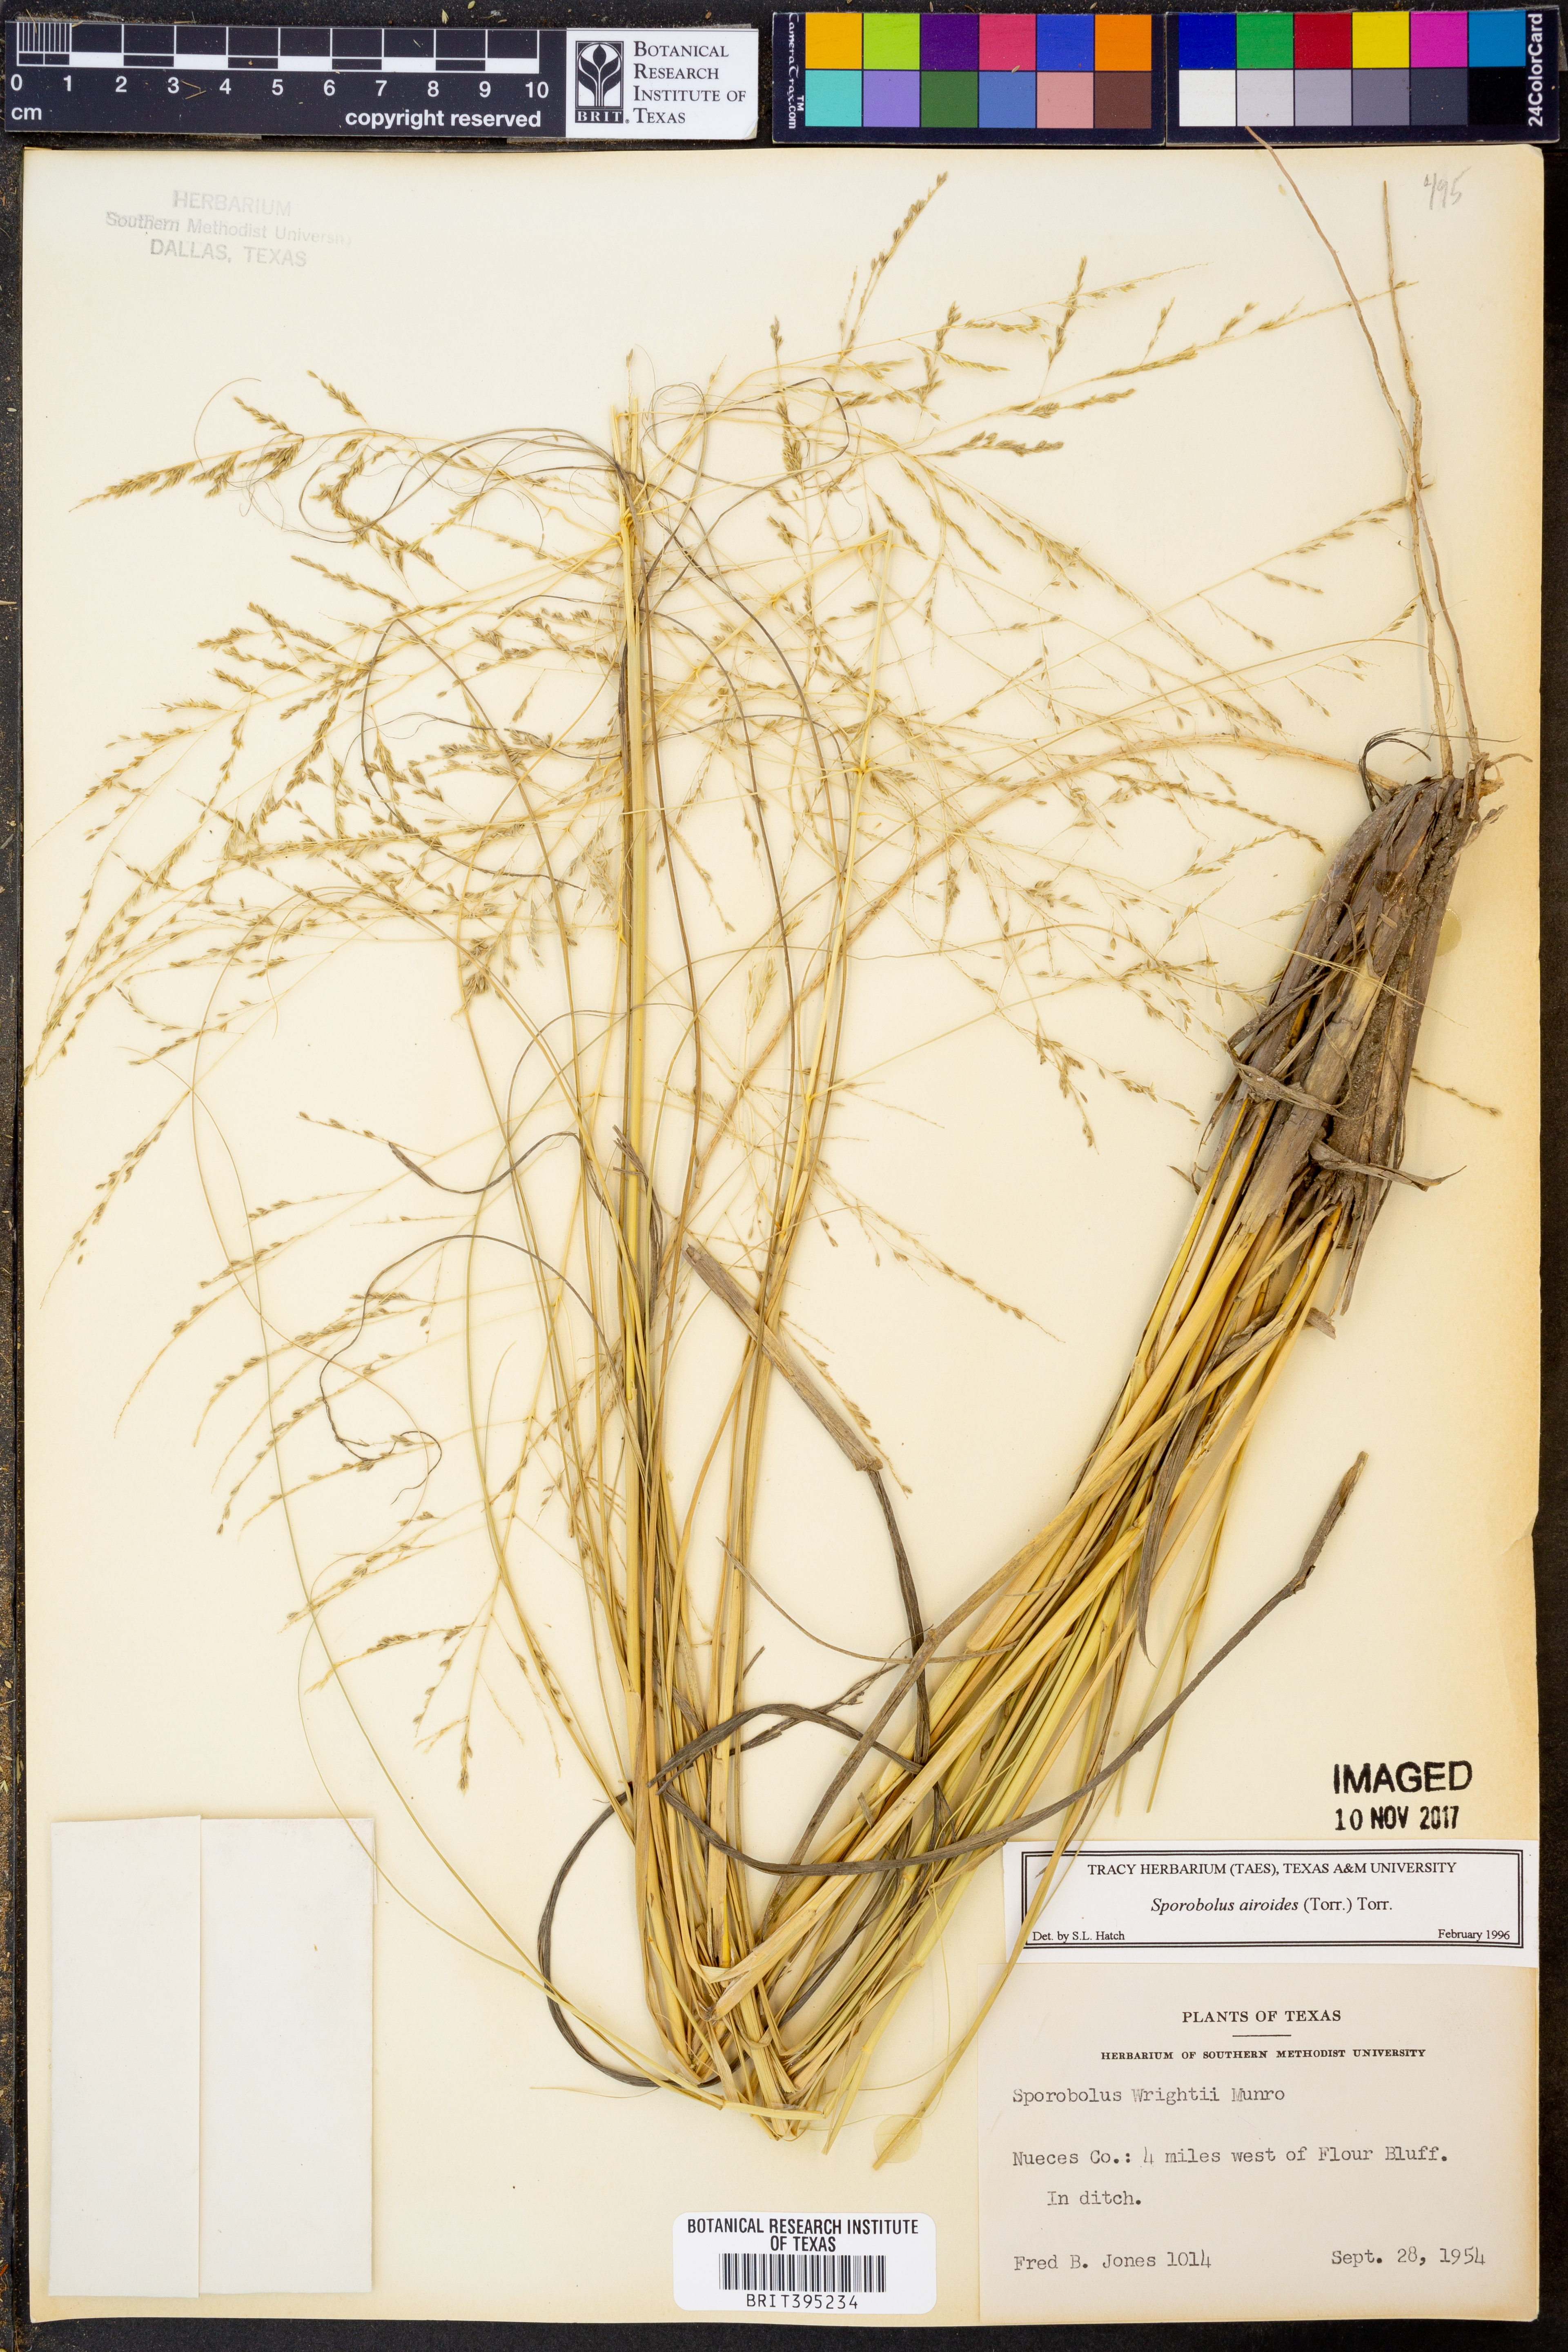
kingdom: Plantae
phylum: Tracheophyta
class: Liliopsida
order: Poales
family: Poaceae
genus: Sporobolus
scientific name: Sporobolus airoides
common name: Alkali sacaton
